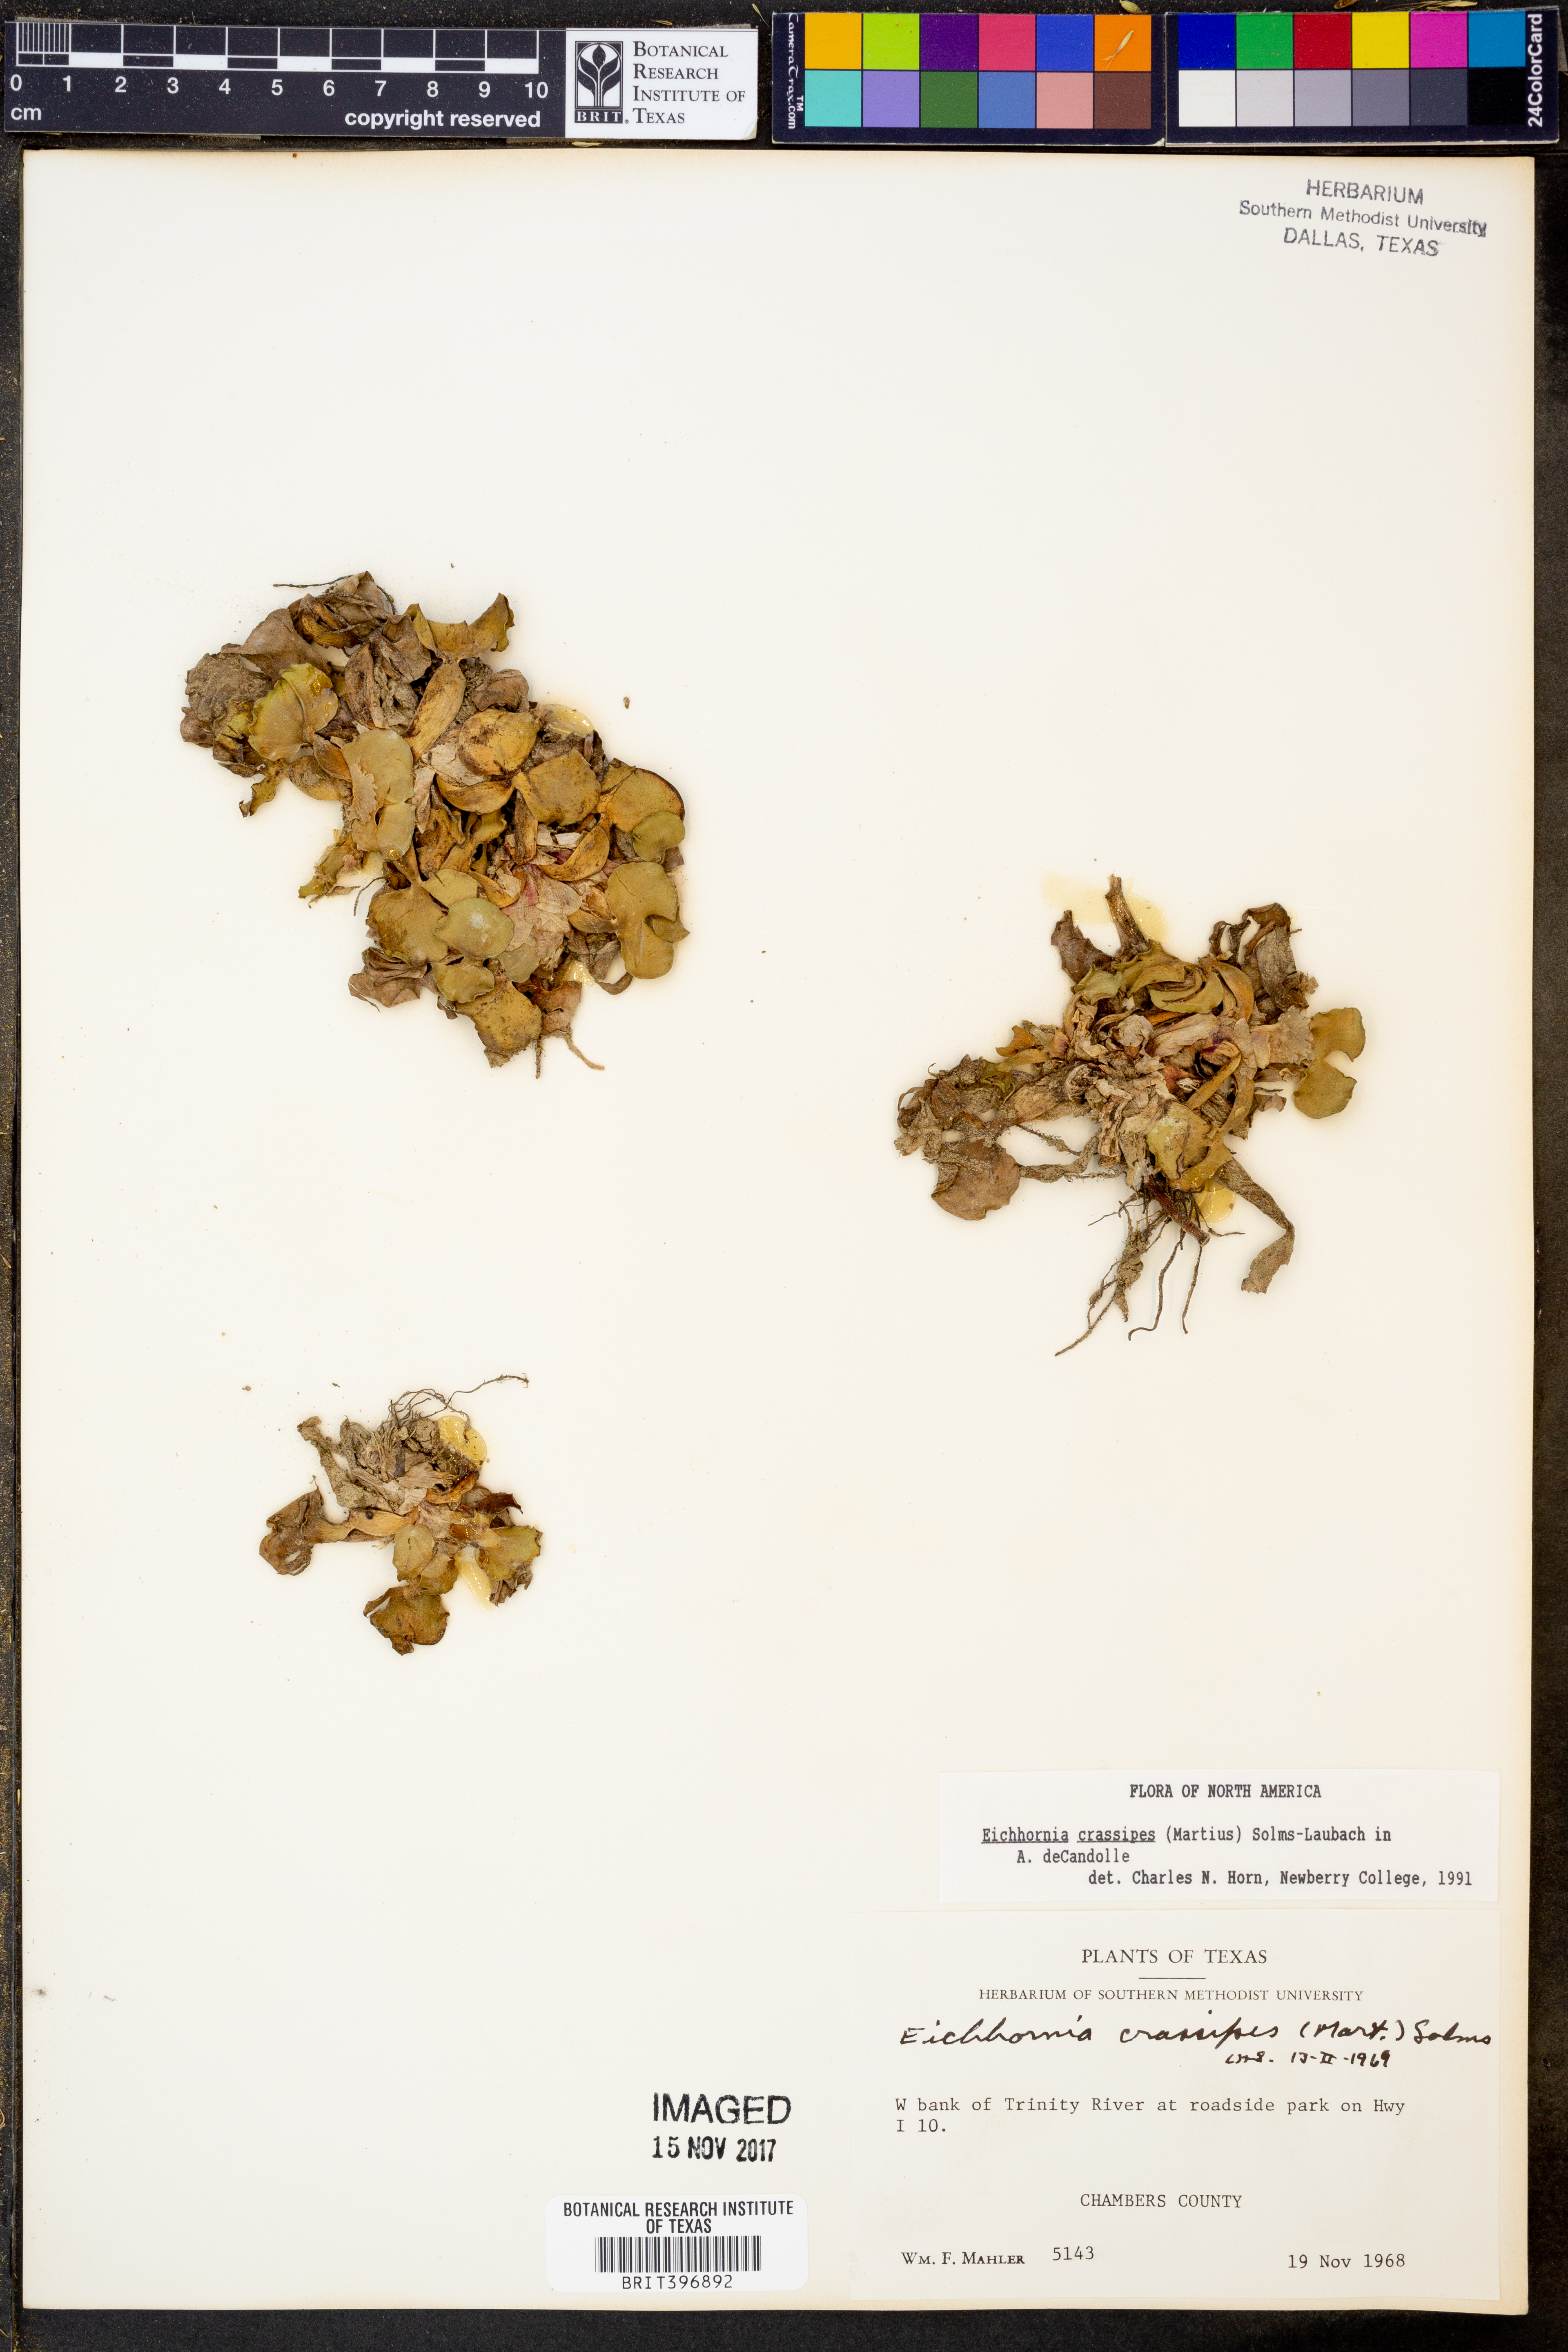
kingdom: Plantae
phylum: Tracheophyta
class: Liliopsida
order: Commelinales
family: Pontederiaceae
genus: Pontederia
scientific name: Pontederia crassipes
